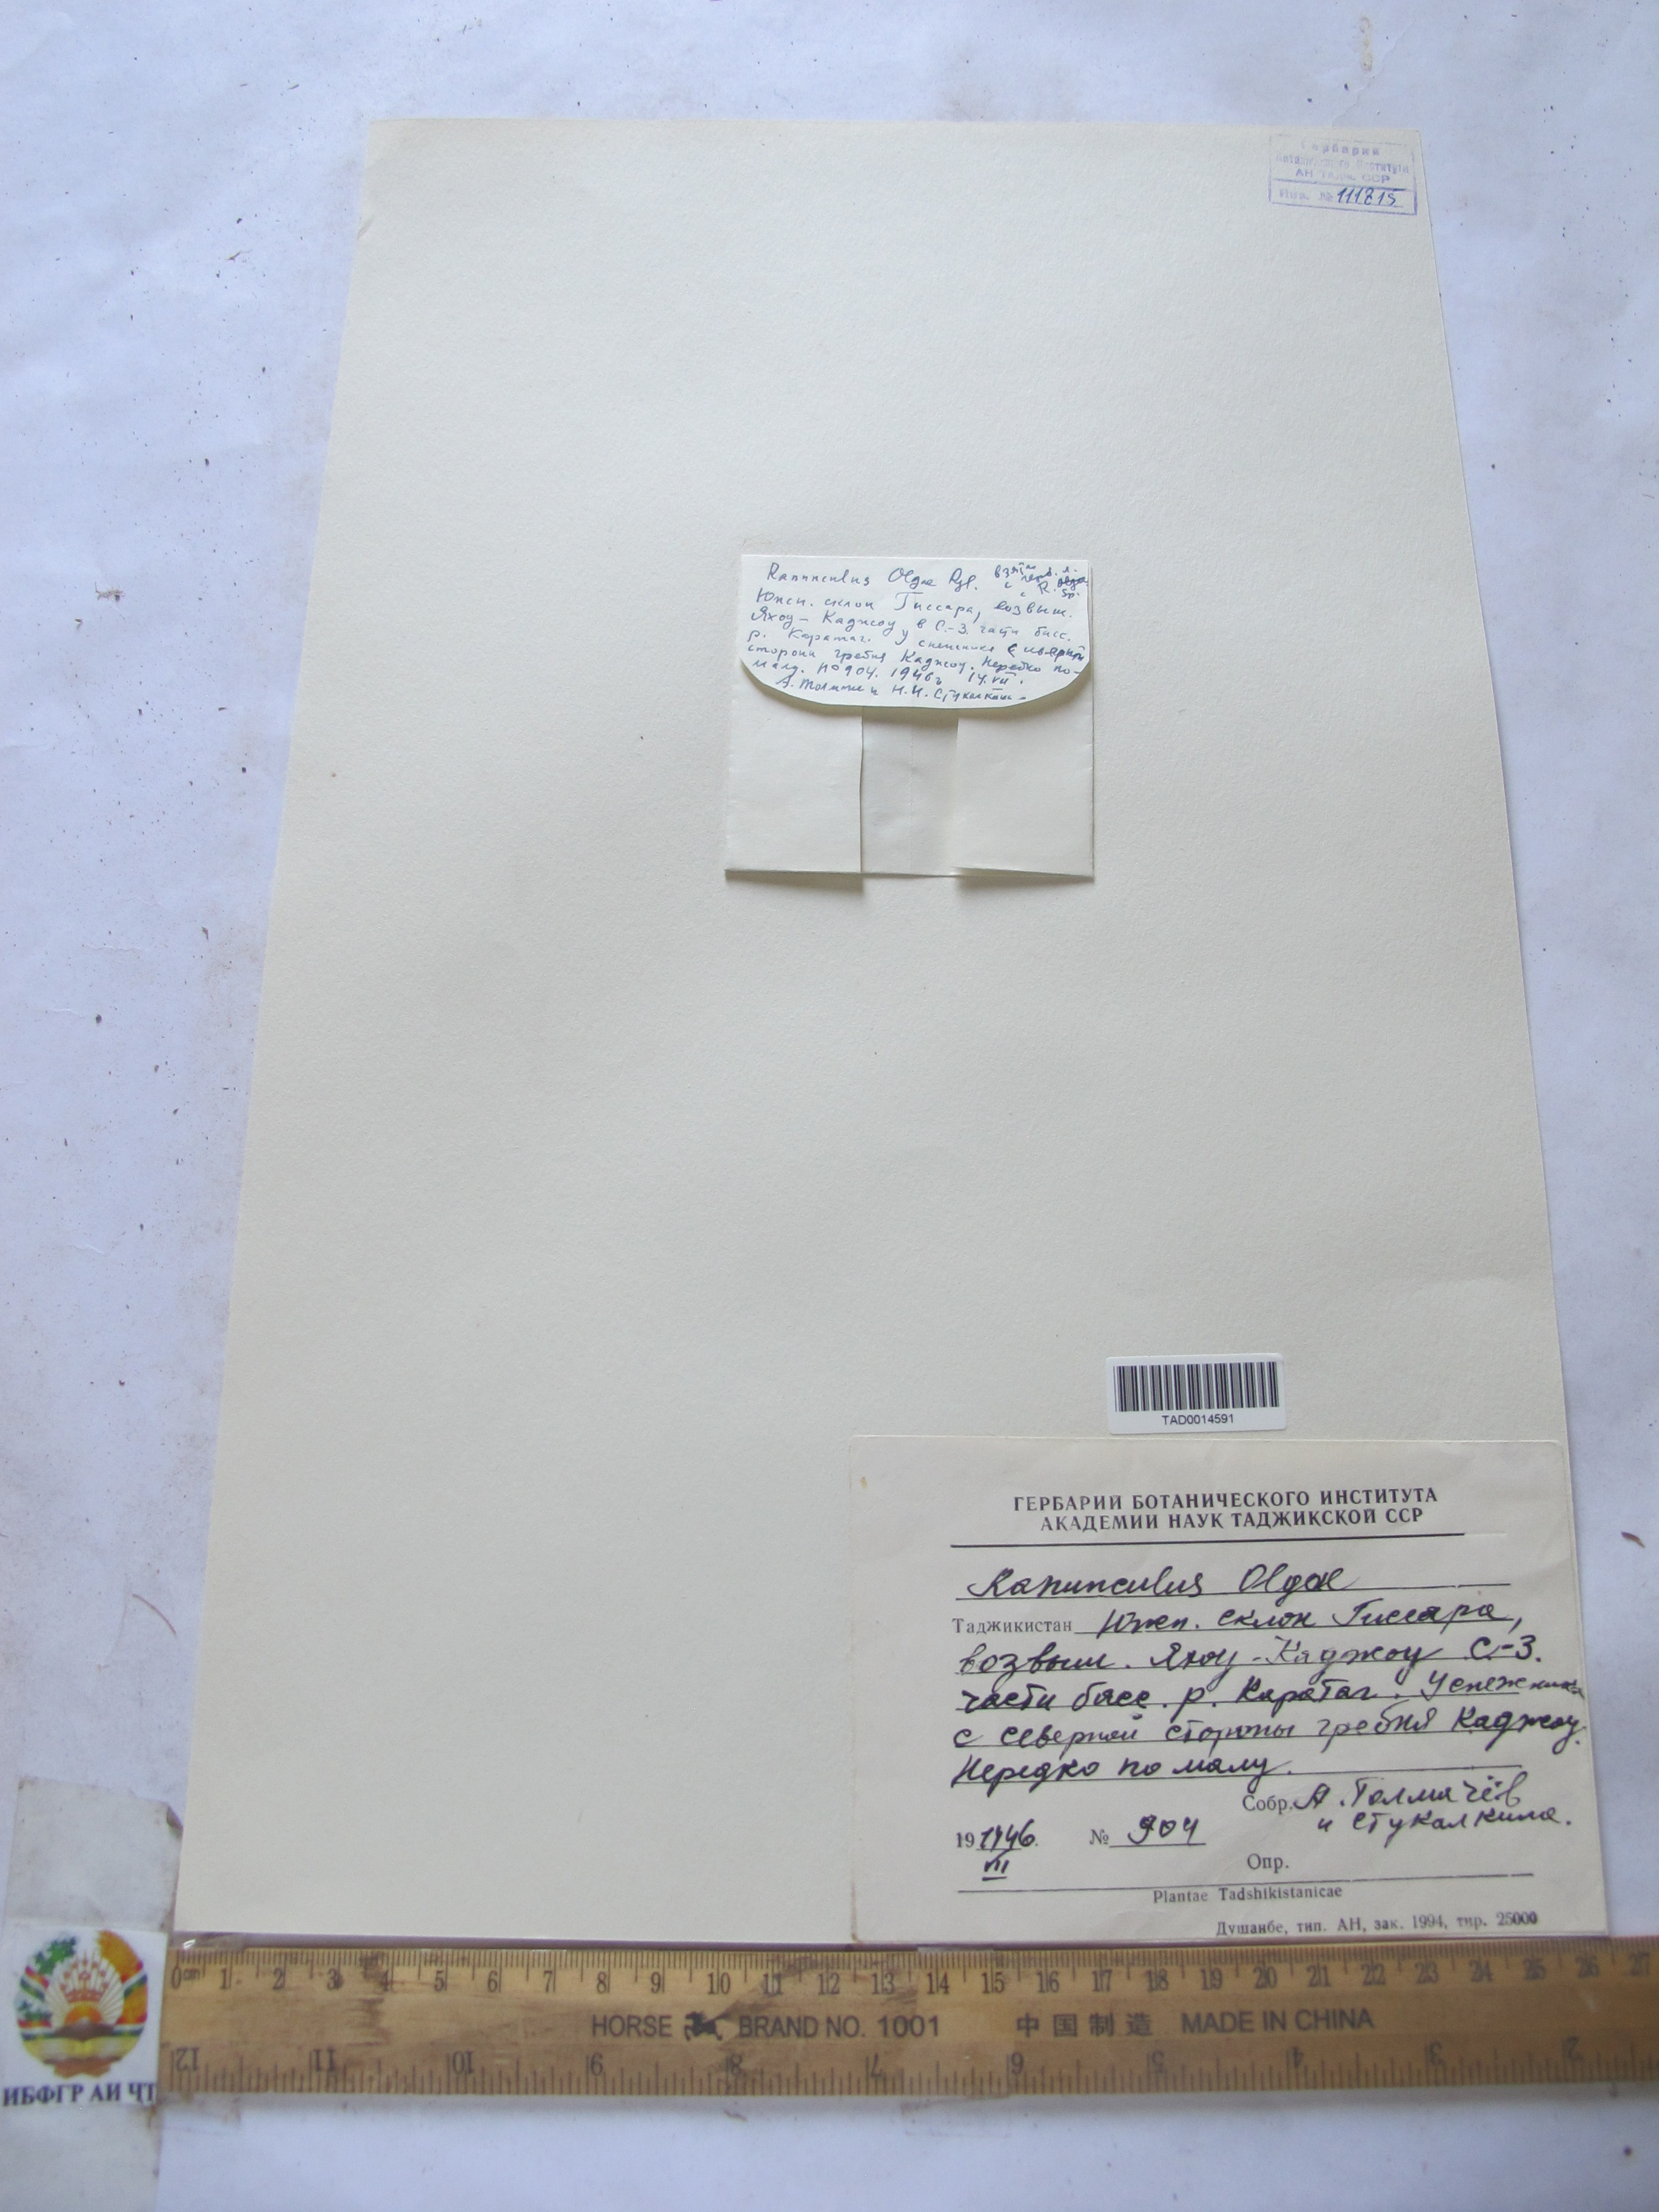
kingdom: Plantae
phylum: Tracheophyta
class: Magnoliopsida
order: Ranunculales
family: Ranunculaceae
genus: Ranunculus
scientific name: Ranunculus afghanicus
